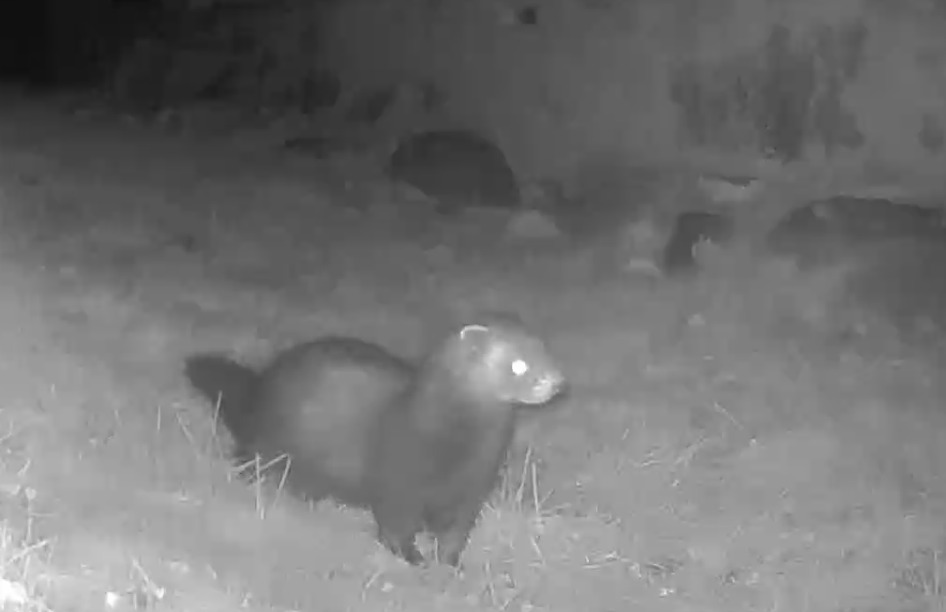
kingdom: Animalia
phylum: Chordata
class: Mammalia
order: Carnivora
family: Mustelidae
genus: Mustela
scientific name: Mustela putorius
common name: Ilder
